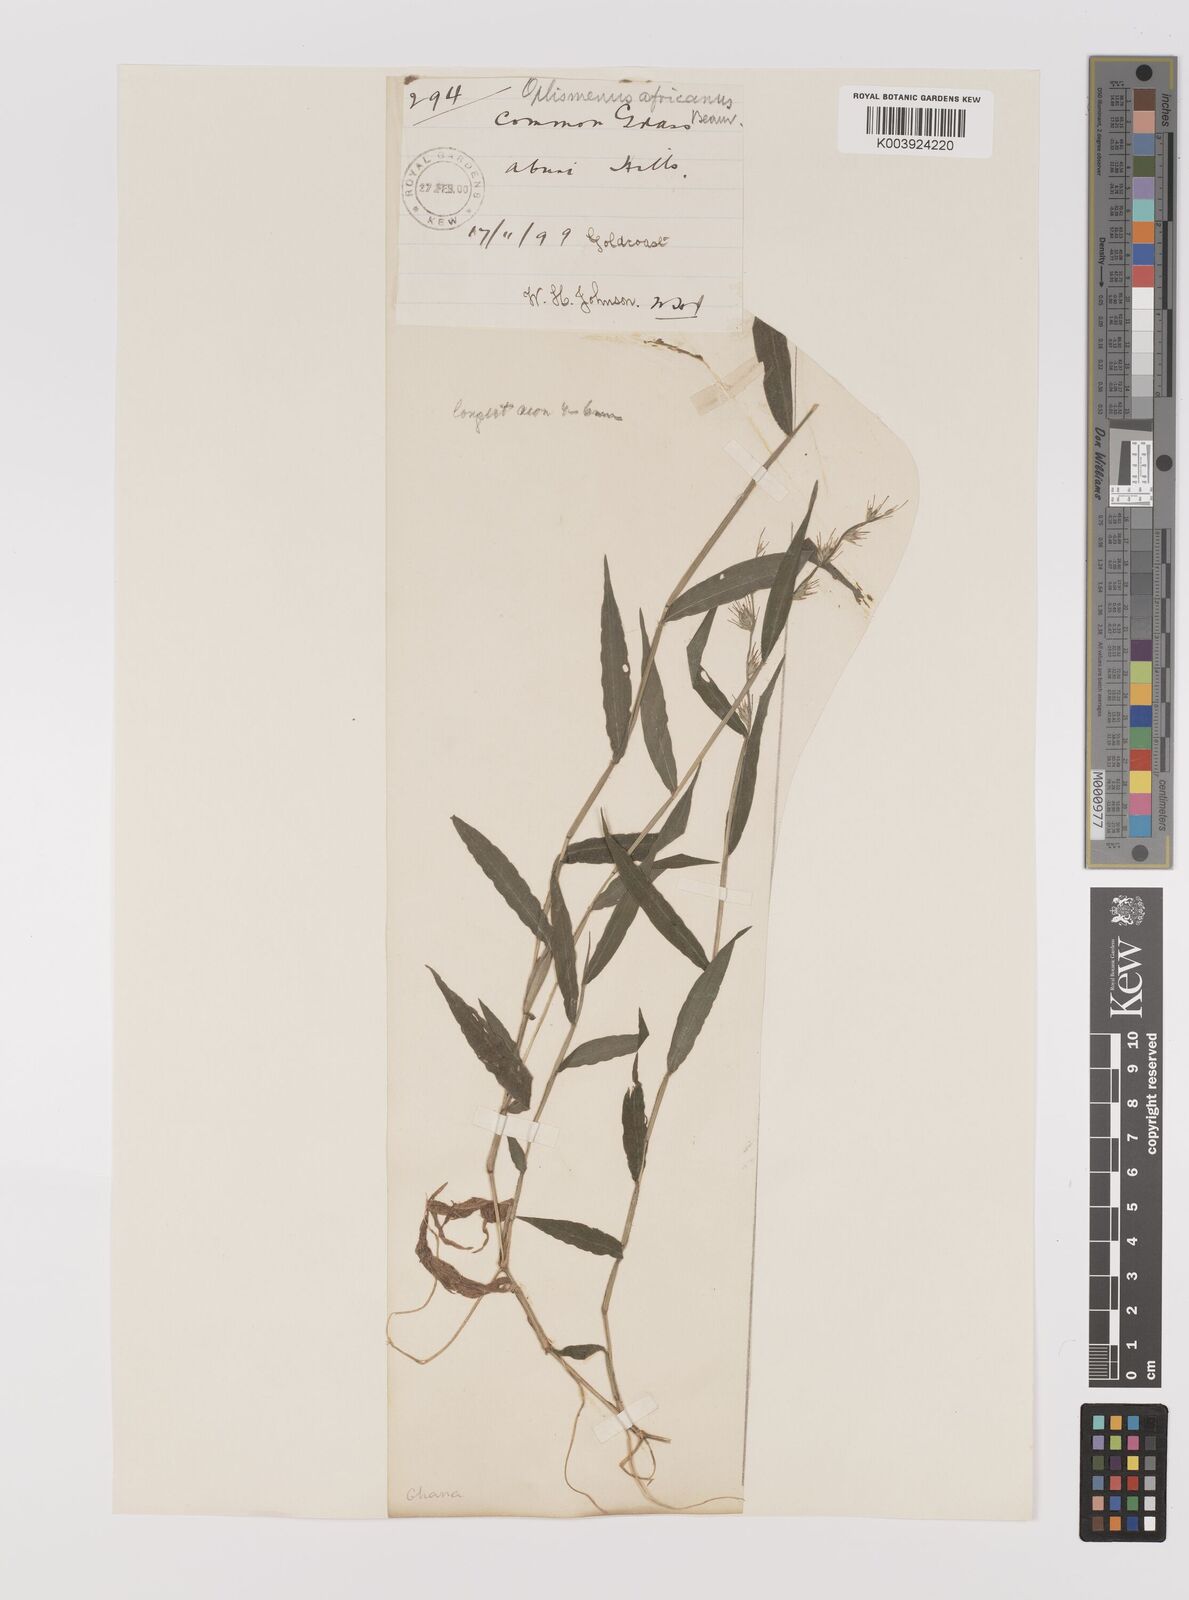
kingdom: Plantae
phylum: Tracheophyta
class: Liliopsida
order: Poales
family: Poaceae
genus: Oplismenus
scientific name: Oplismenus hirtellus
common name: Basketgrass
